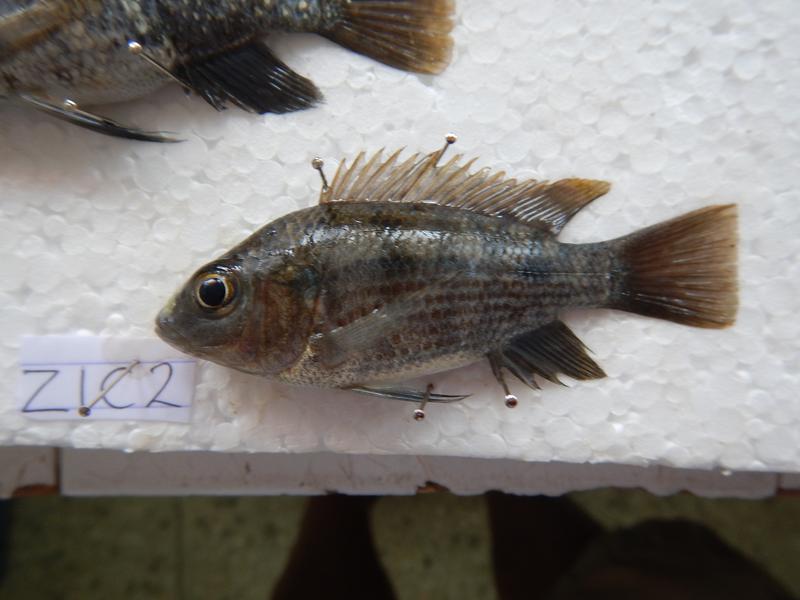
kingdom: Animalia
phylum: Chordata
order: Perciformes
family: Cichlidae
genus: Oreochromis
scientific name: Oreochromis urolepis
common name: Wami tilapia
